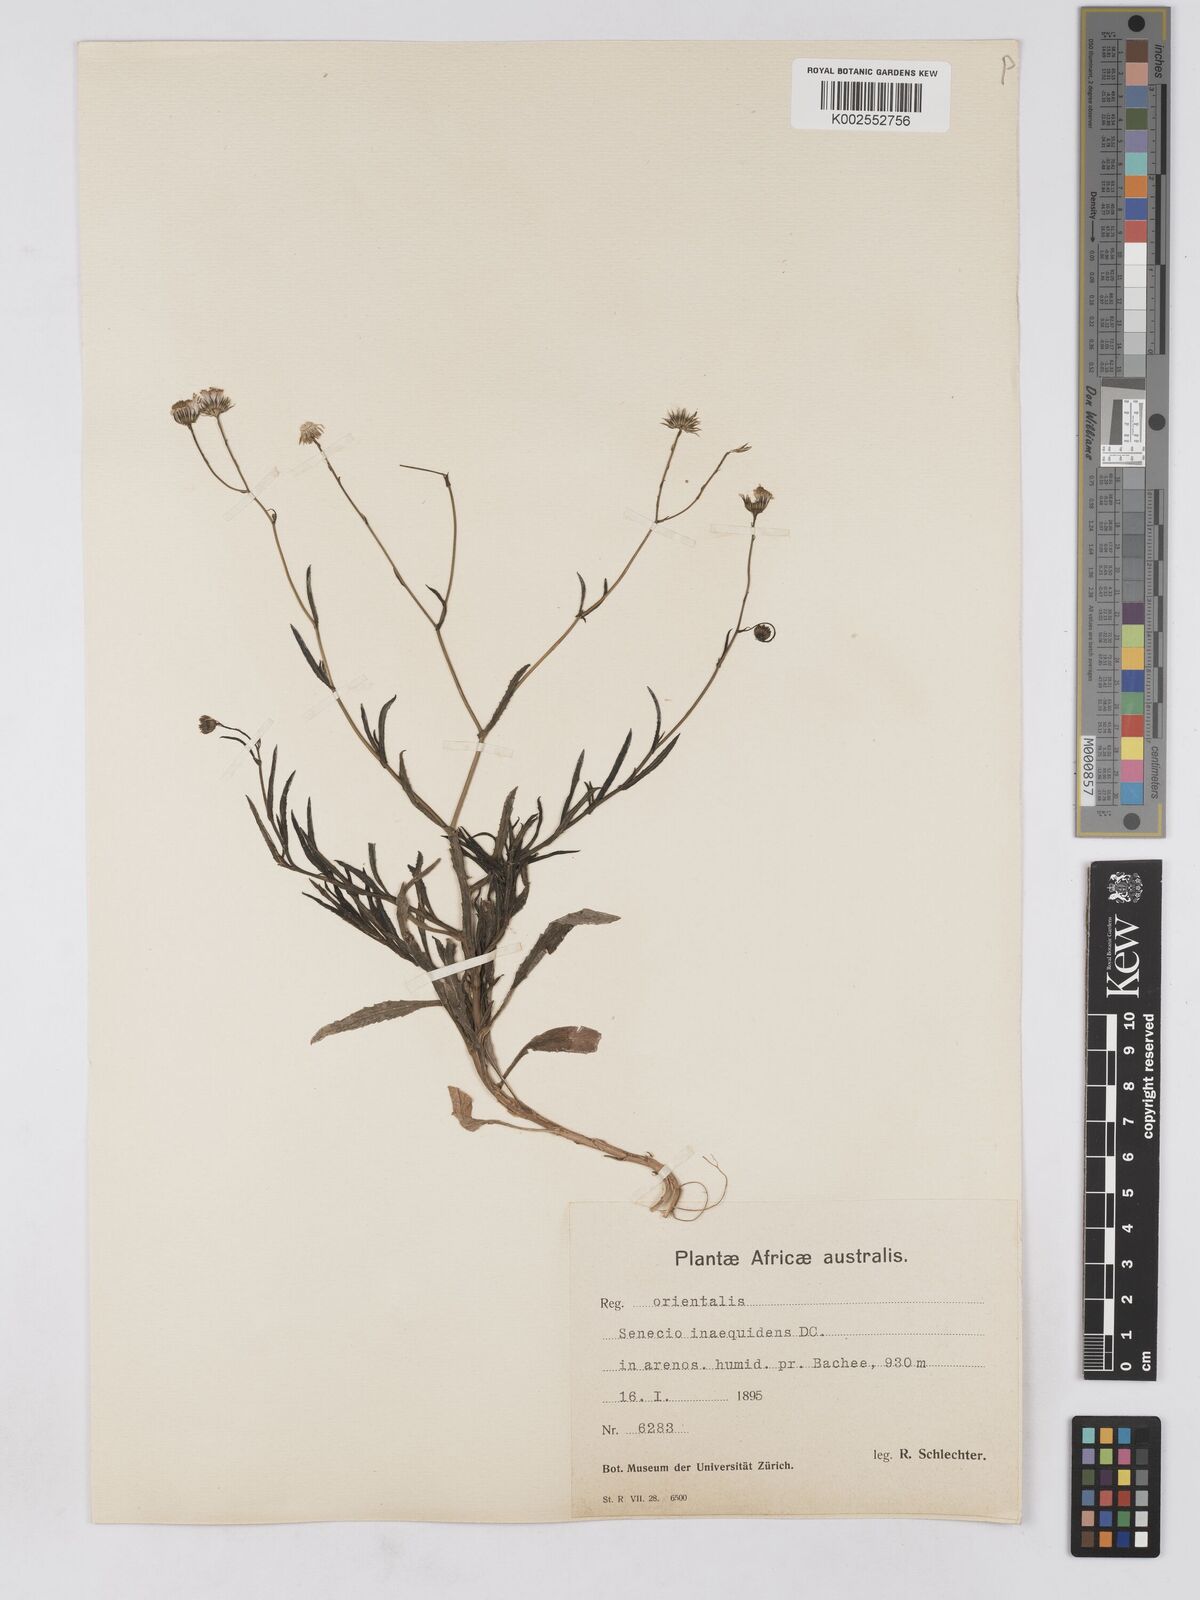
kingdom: Plantae
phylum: Tracheophyta
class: Magnoliopsida
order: Asterales
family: Asteraceae
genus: Senecio
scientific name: Senecio madagascariensis
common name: Madagascar ragwort
